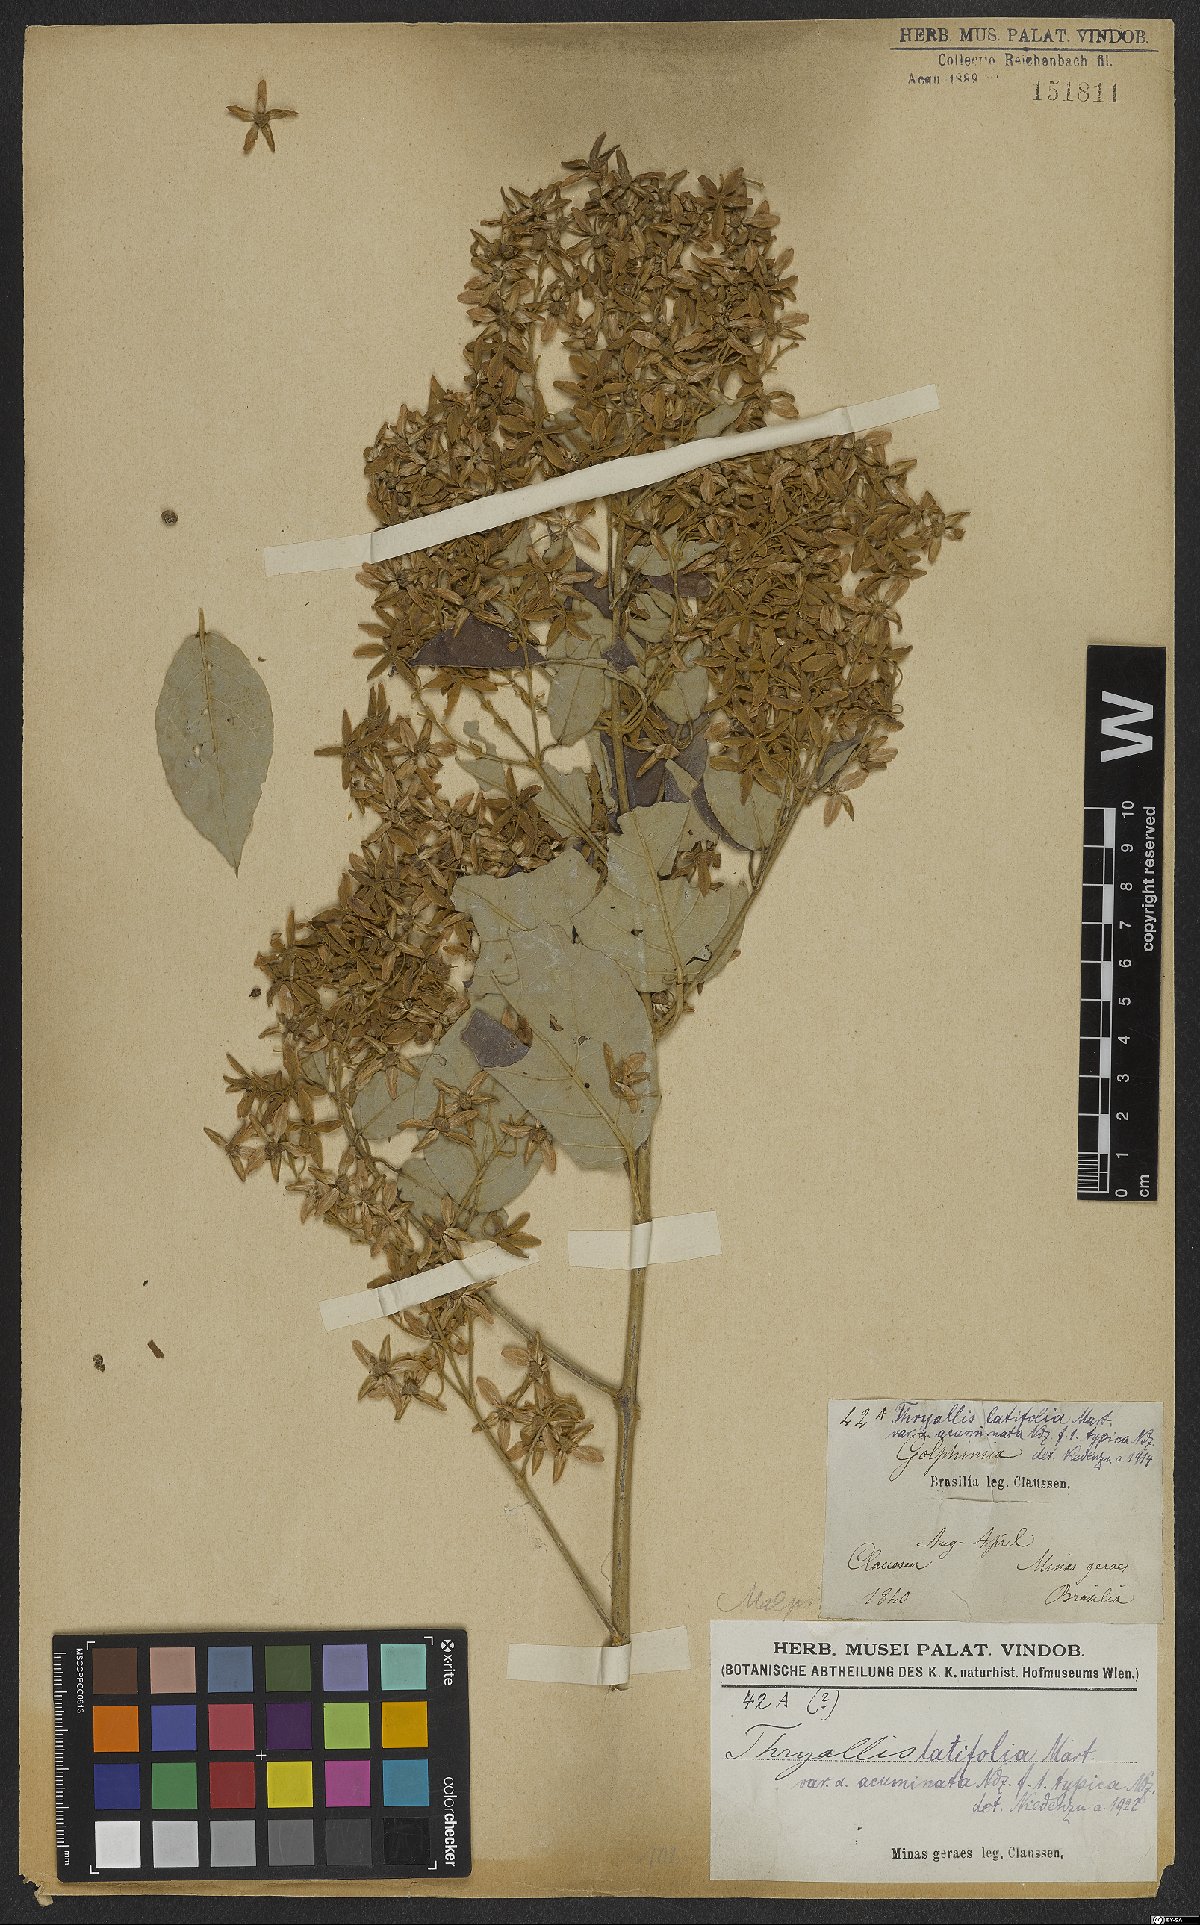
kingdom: Plantae
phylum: Tracheophyta
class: Magnoliopsida
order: Malpighiales
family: Malpighiaceae
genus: Thryallis
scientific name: Thryallis latifolia
